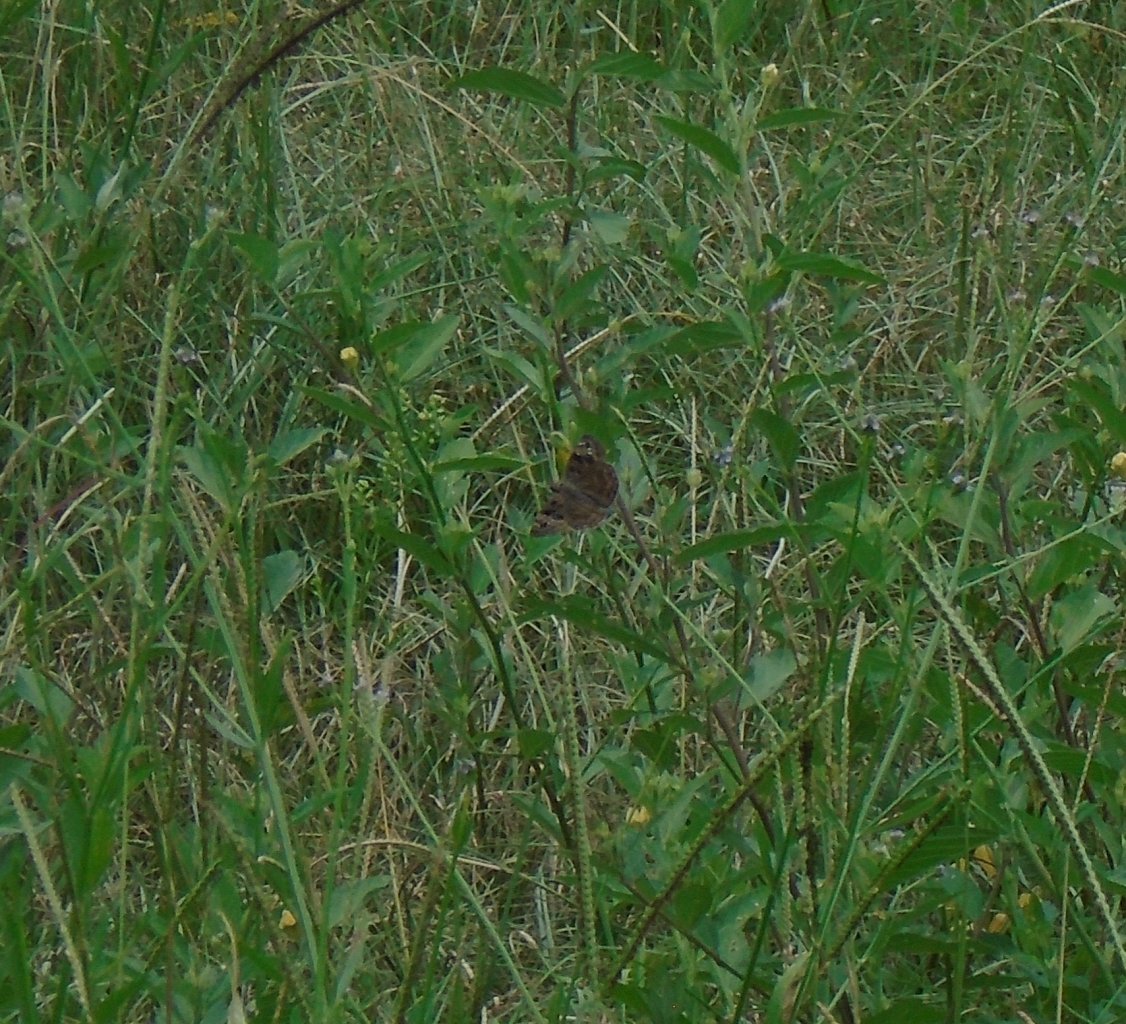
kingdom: Animalia
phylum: Arthropoda
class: Insecta
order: Lepidoptera
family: Hesperiidae
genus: Gesta
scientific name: Gesta
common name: Horace's Duskywing
